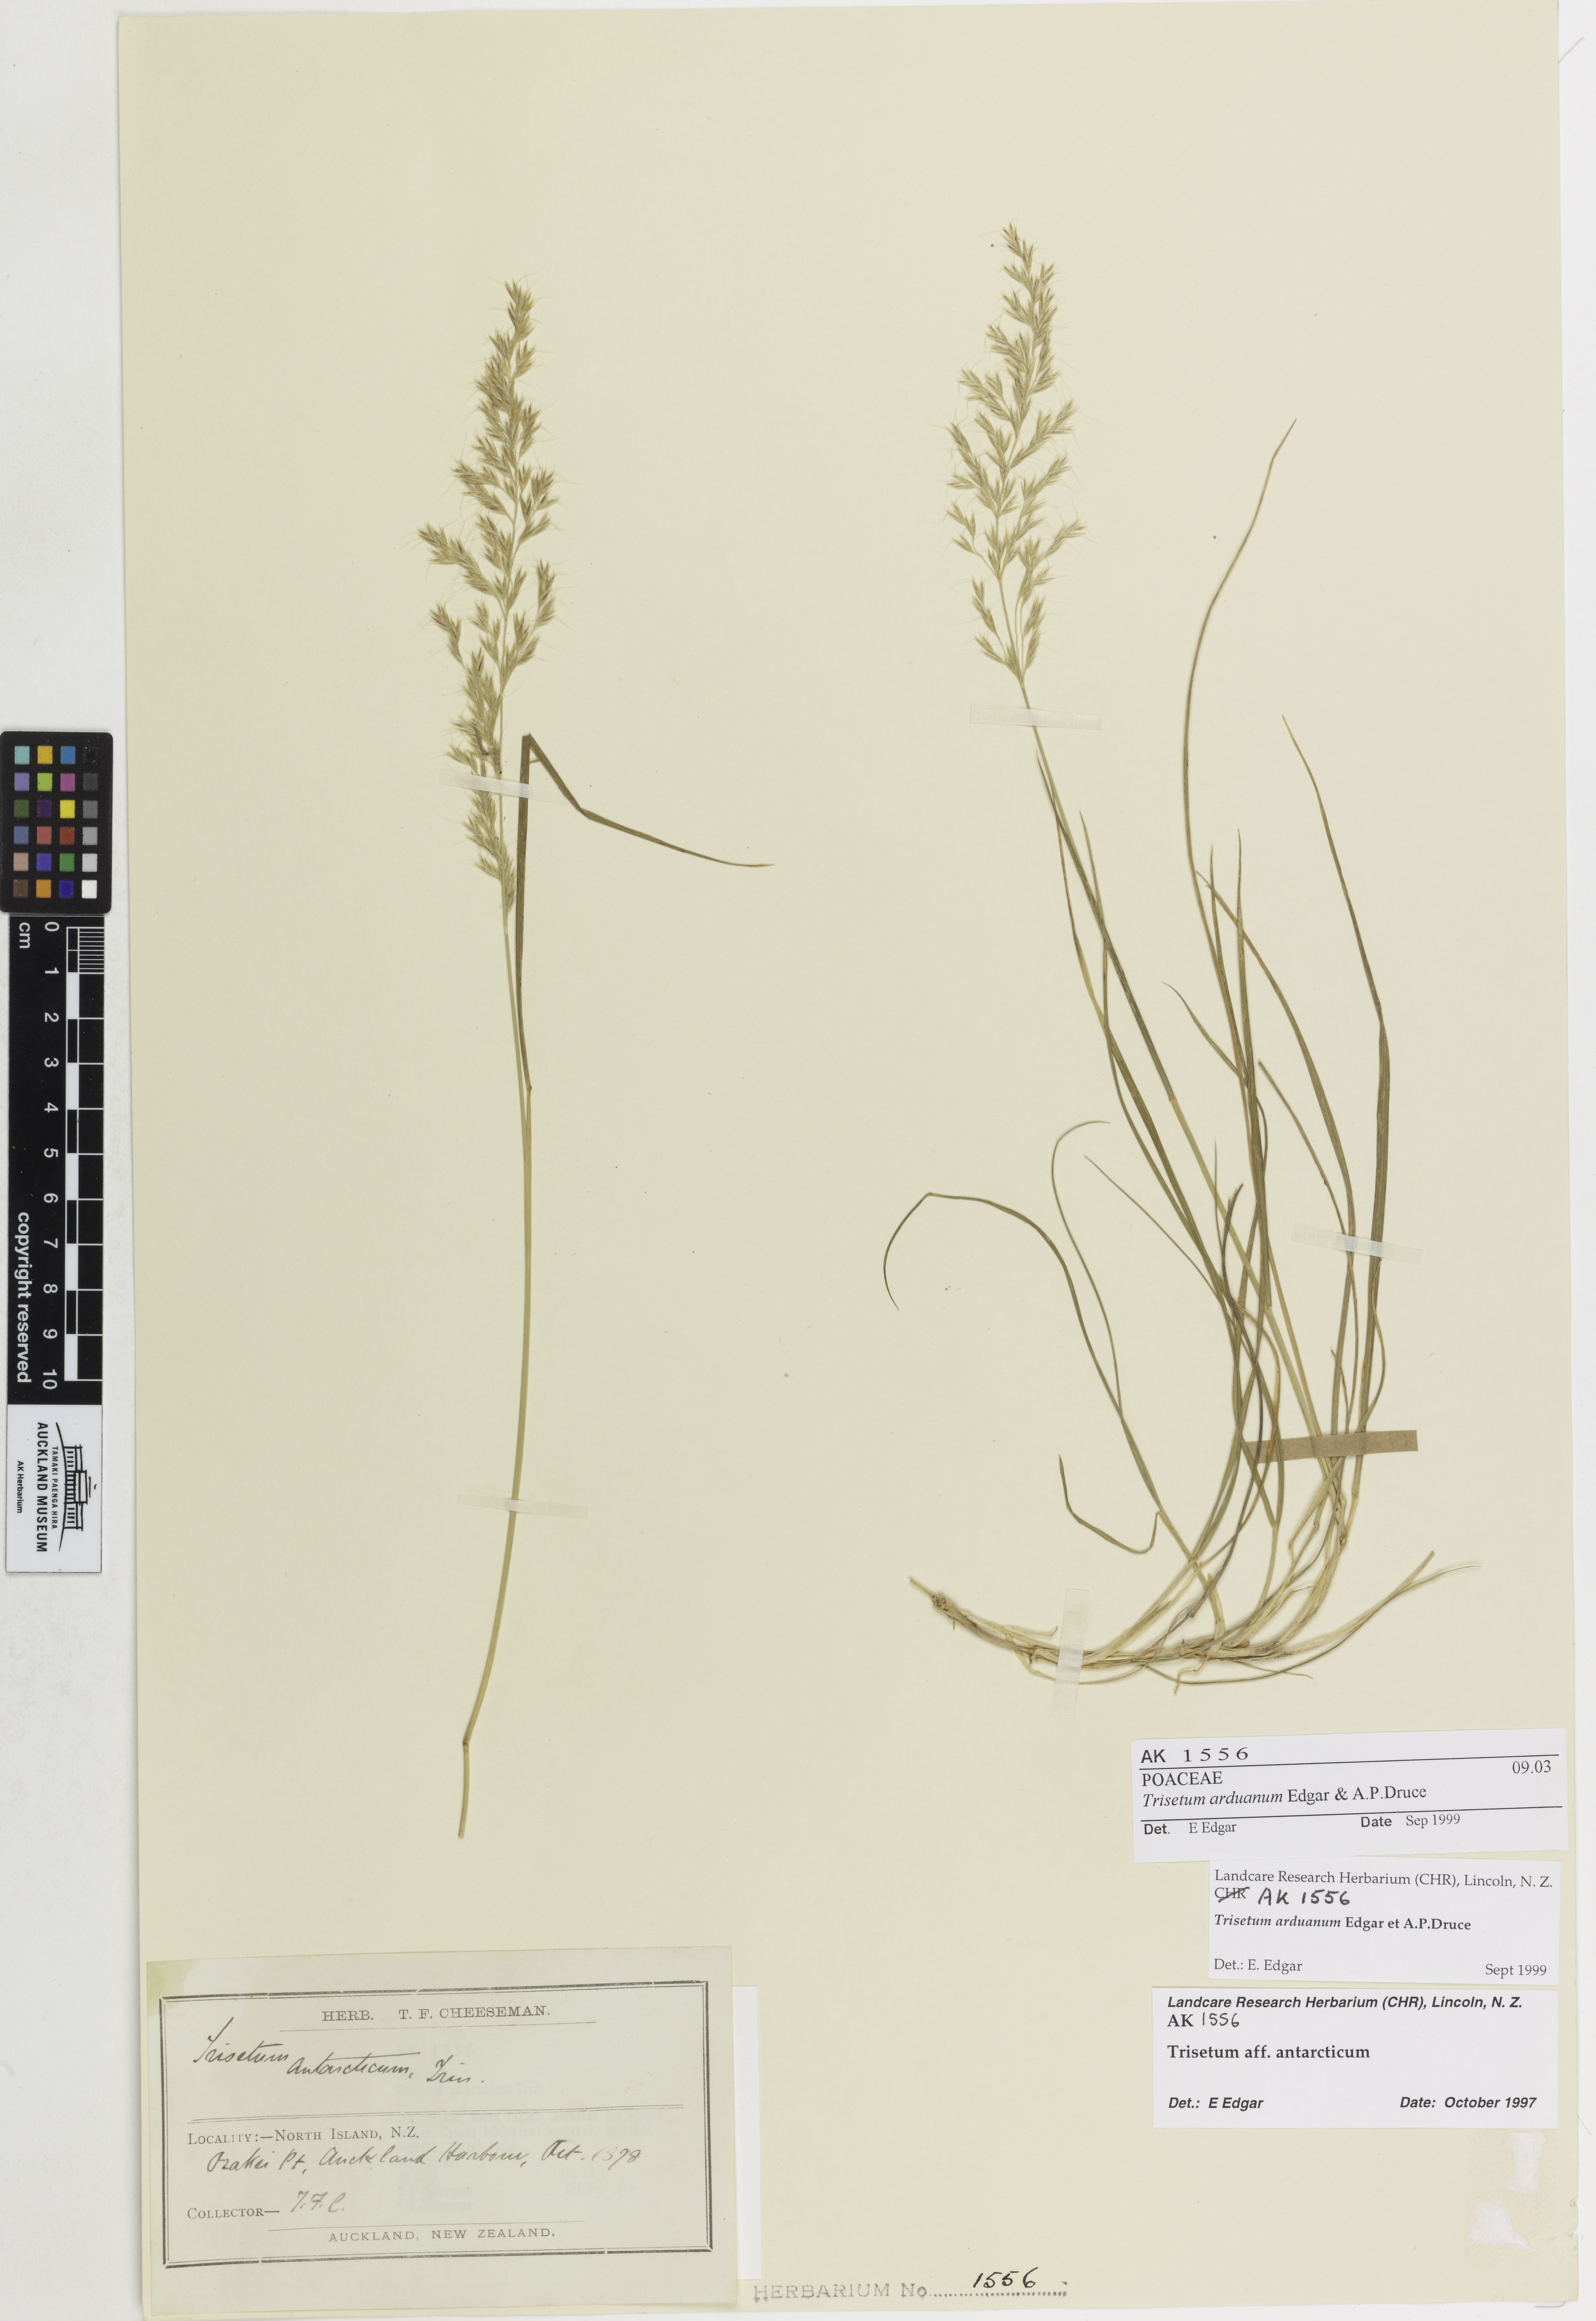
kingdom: Plantae
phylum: Tracheophyta
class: Liliopsida
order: Poales
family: Poaceae
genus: Koeleria
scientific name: Koeleria arduana
